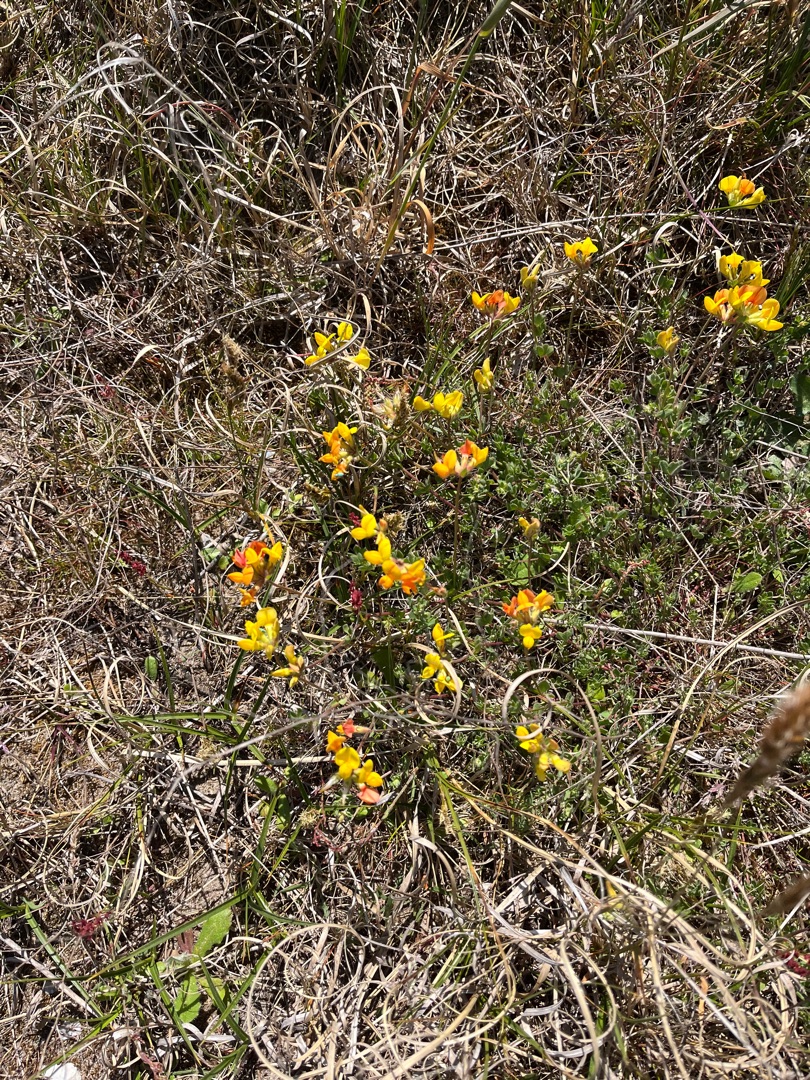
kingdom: Plantae
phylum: Tracheophyta
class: Magnoliopsida
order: Fabales
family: Fabaceae
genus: Lotus
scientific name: Lotus corniculatus
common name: Almindelig kællingetand
